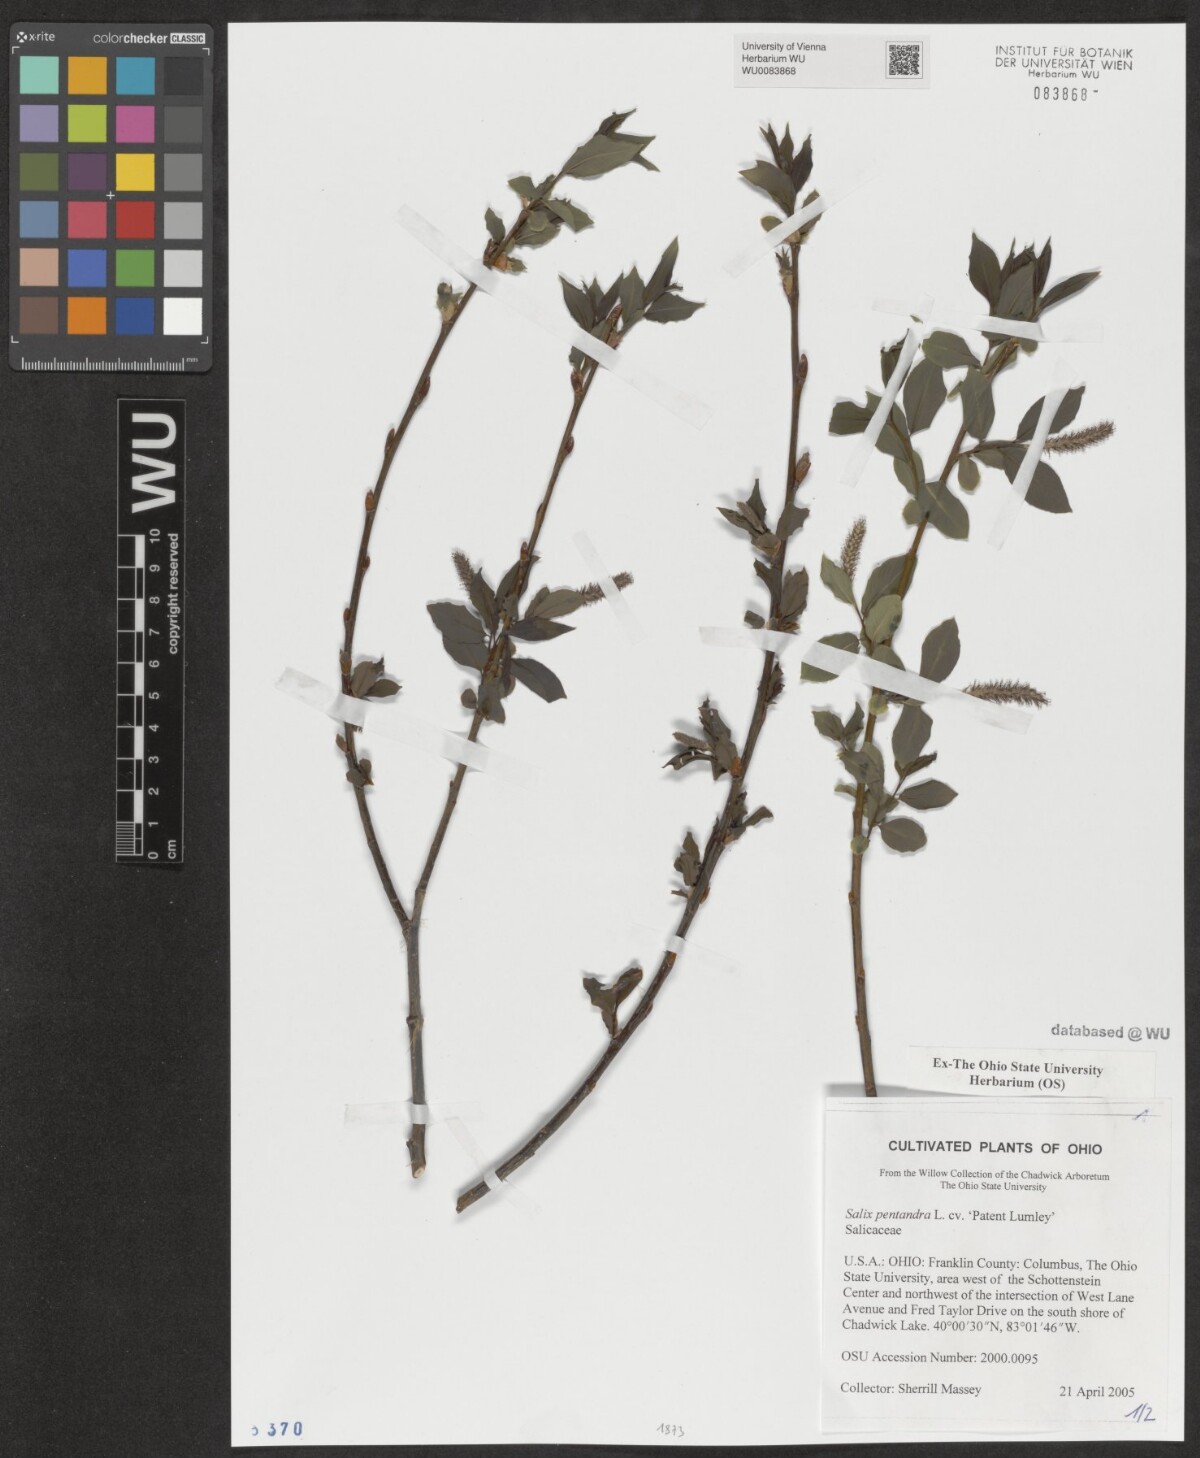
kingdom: Plantae
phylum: Tracheophyta
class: Magnoliopsida
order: Malpighiales
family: Salicaceae
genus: Salix
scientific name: Salix pentandra
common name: Bay willow
